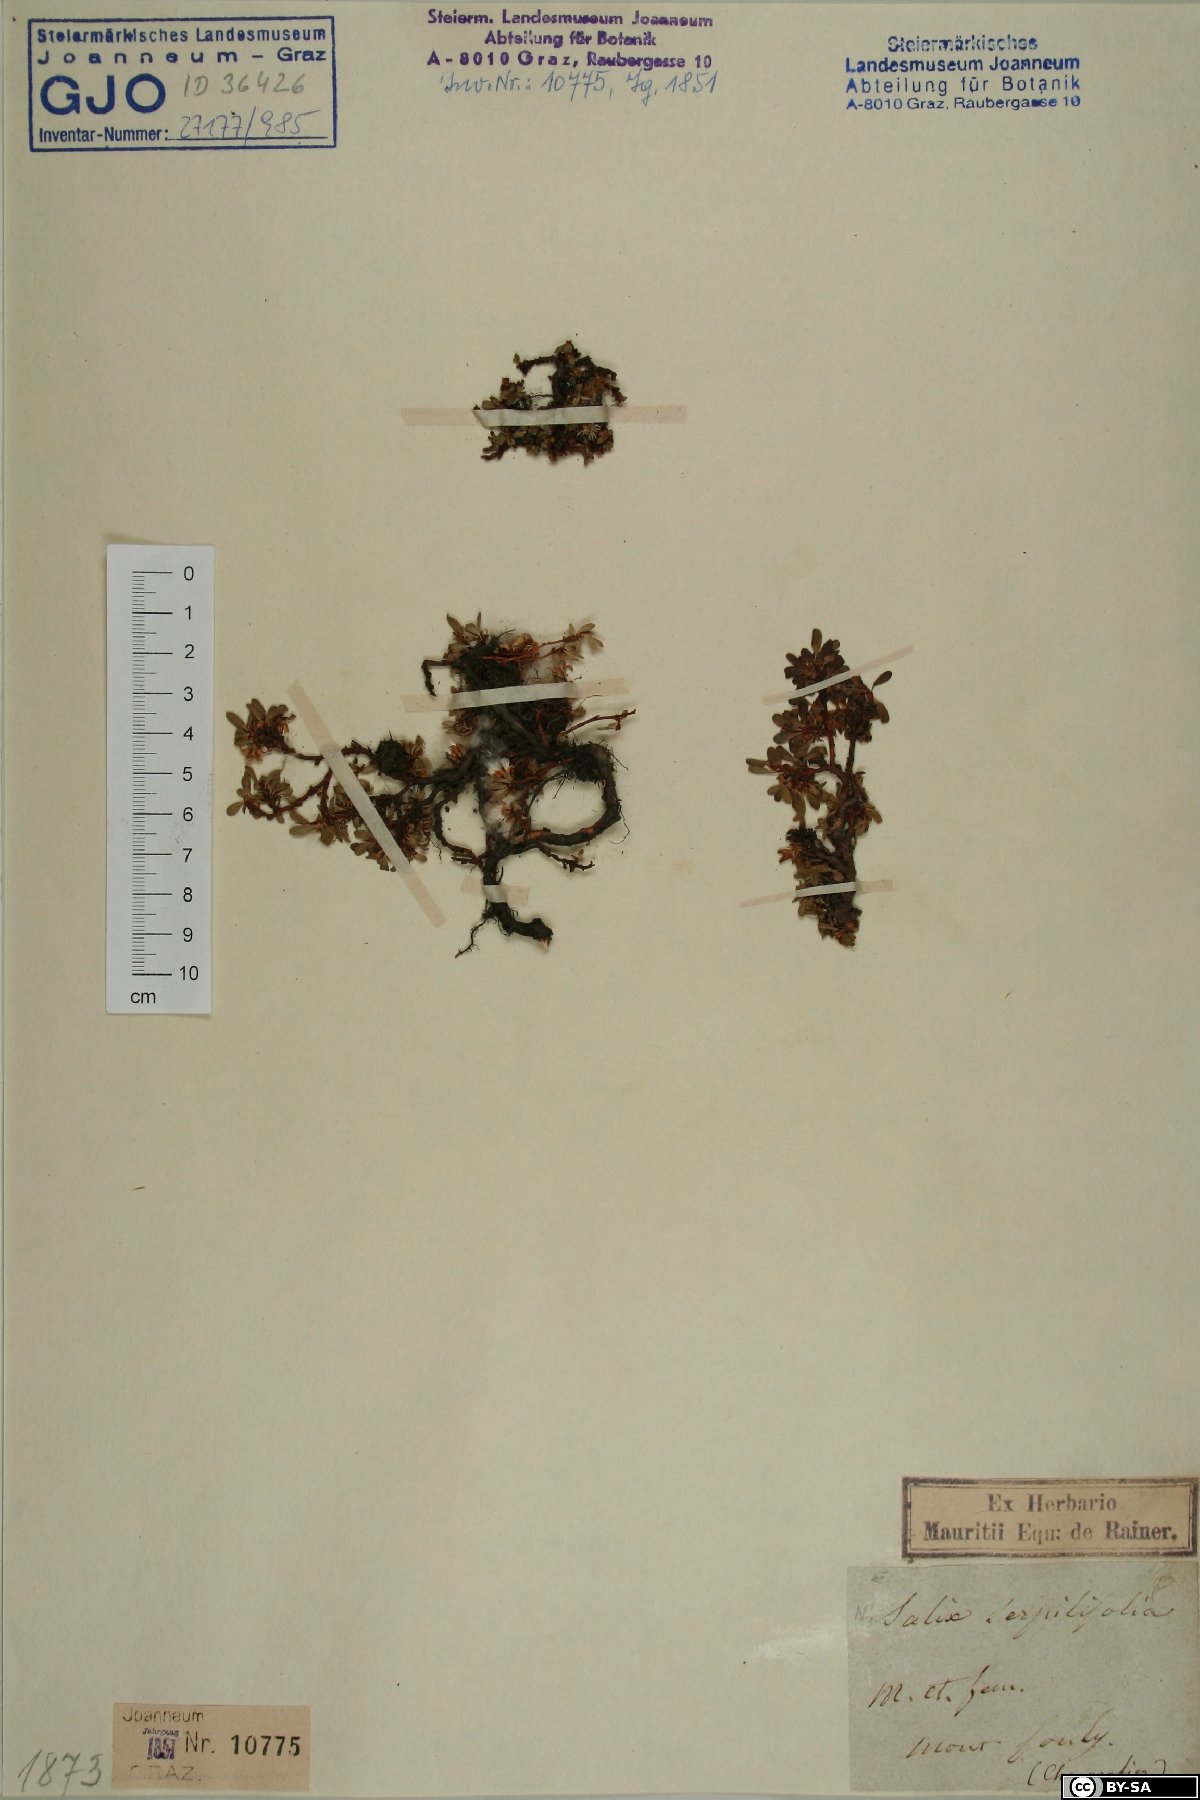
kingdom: Plantae
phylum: Tracheophyta
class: Magnoliopsida
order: Malpighiales
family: Salicaceae
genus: Salix
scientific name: Salix serpillifolia
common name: Thyme-leaf willow
